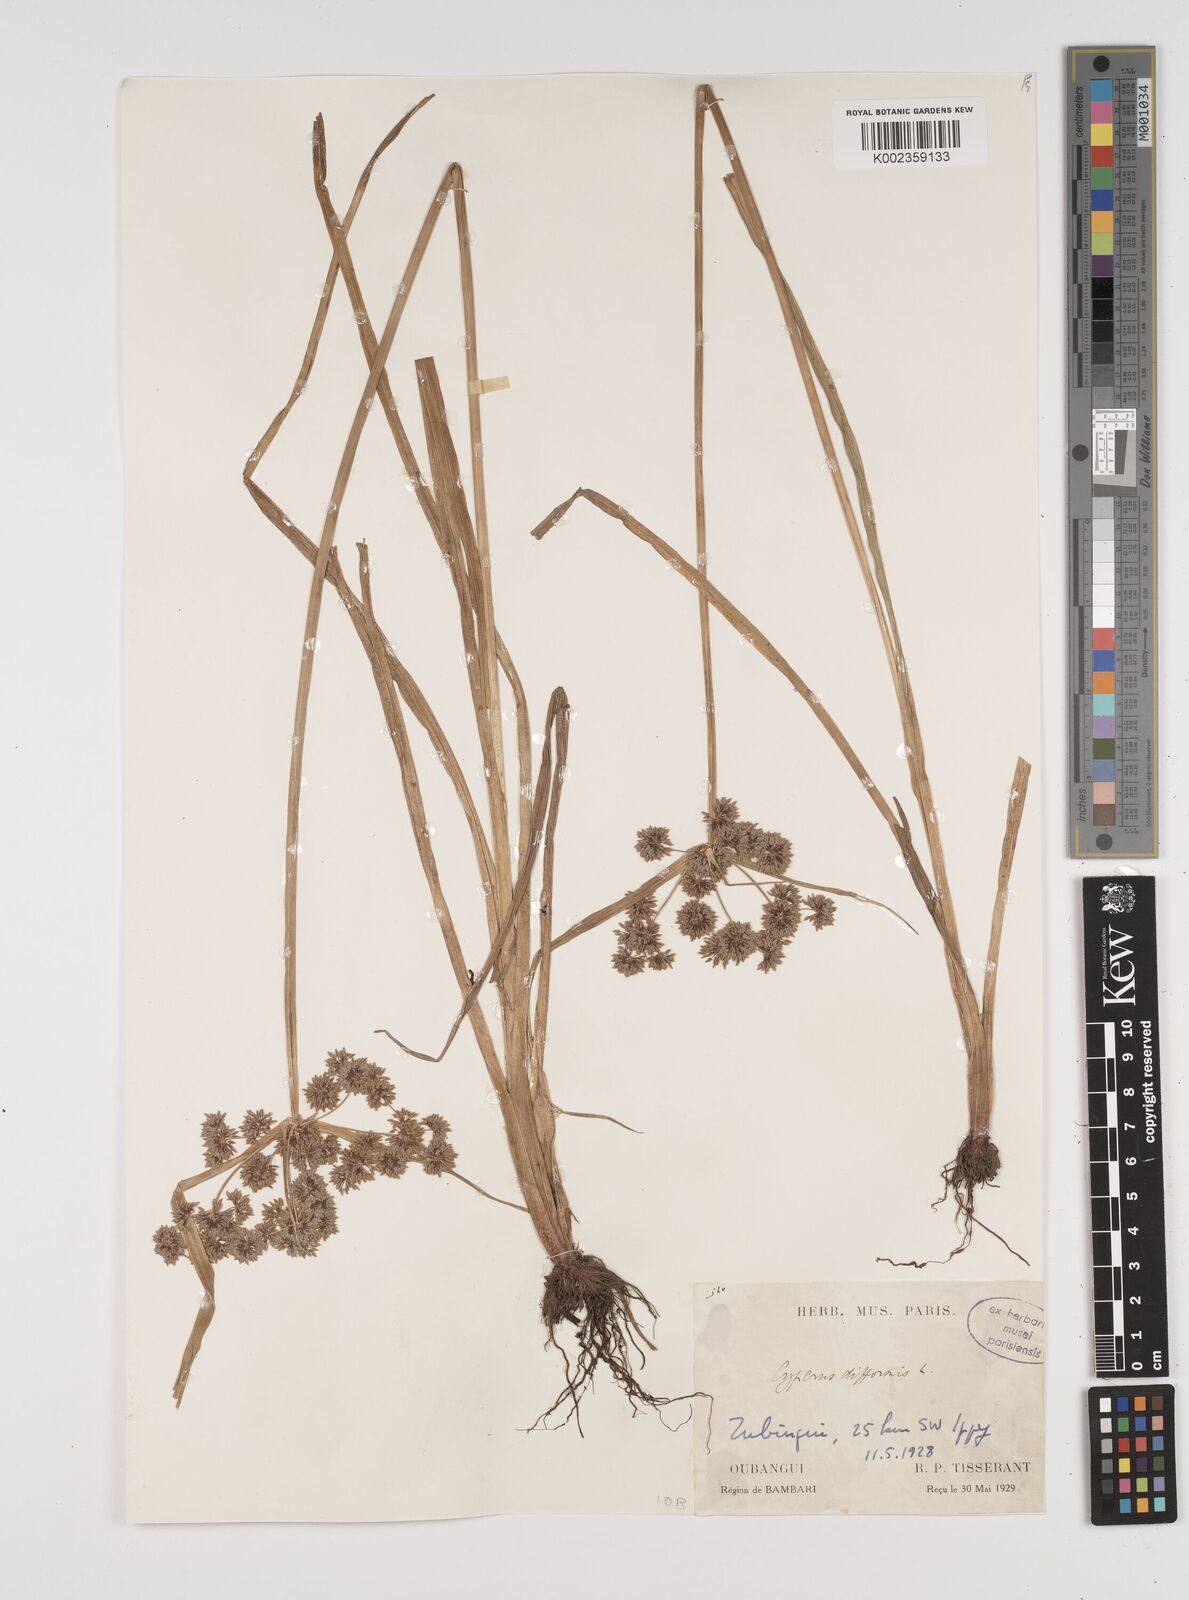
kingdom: Plantae
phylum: Tracheophyta
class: Liliopsida
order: Poales
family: Cyperaceae
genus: Cyperus
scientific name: Cyperus difformis
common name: Variable flatsedge
